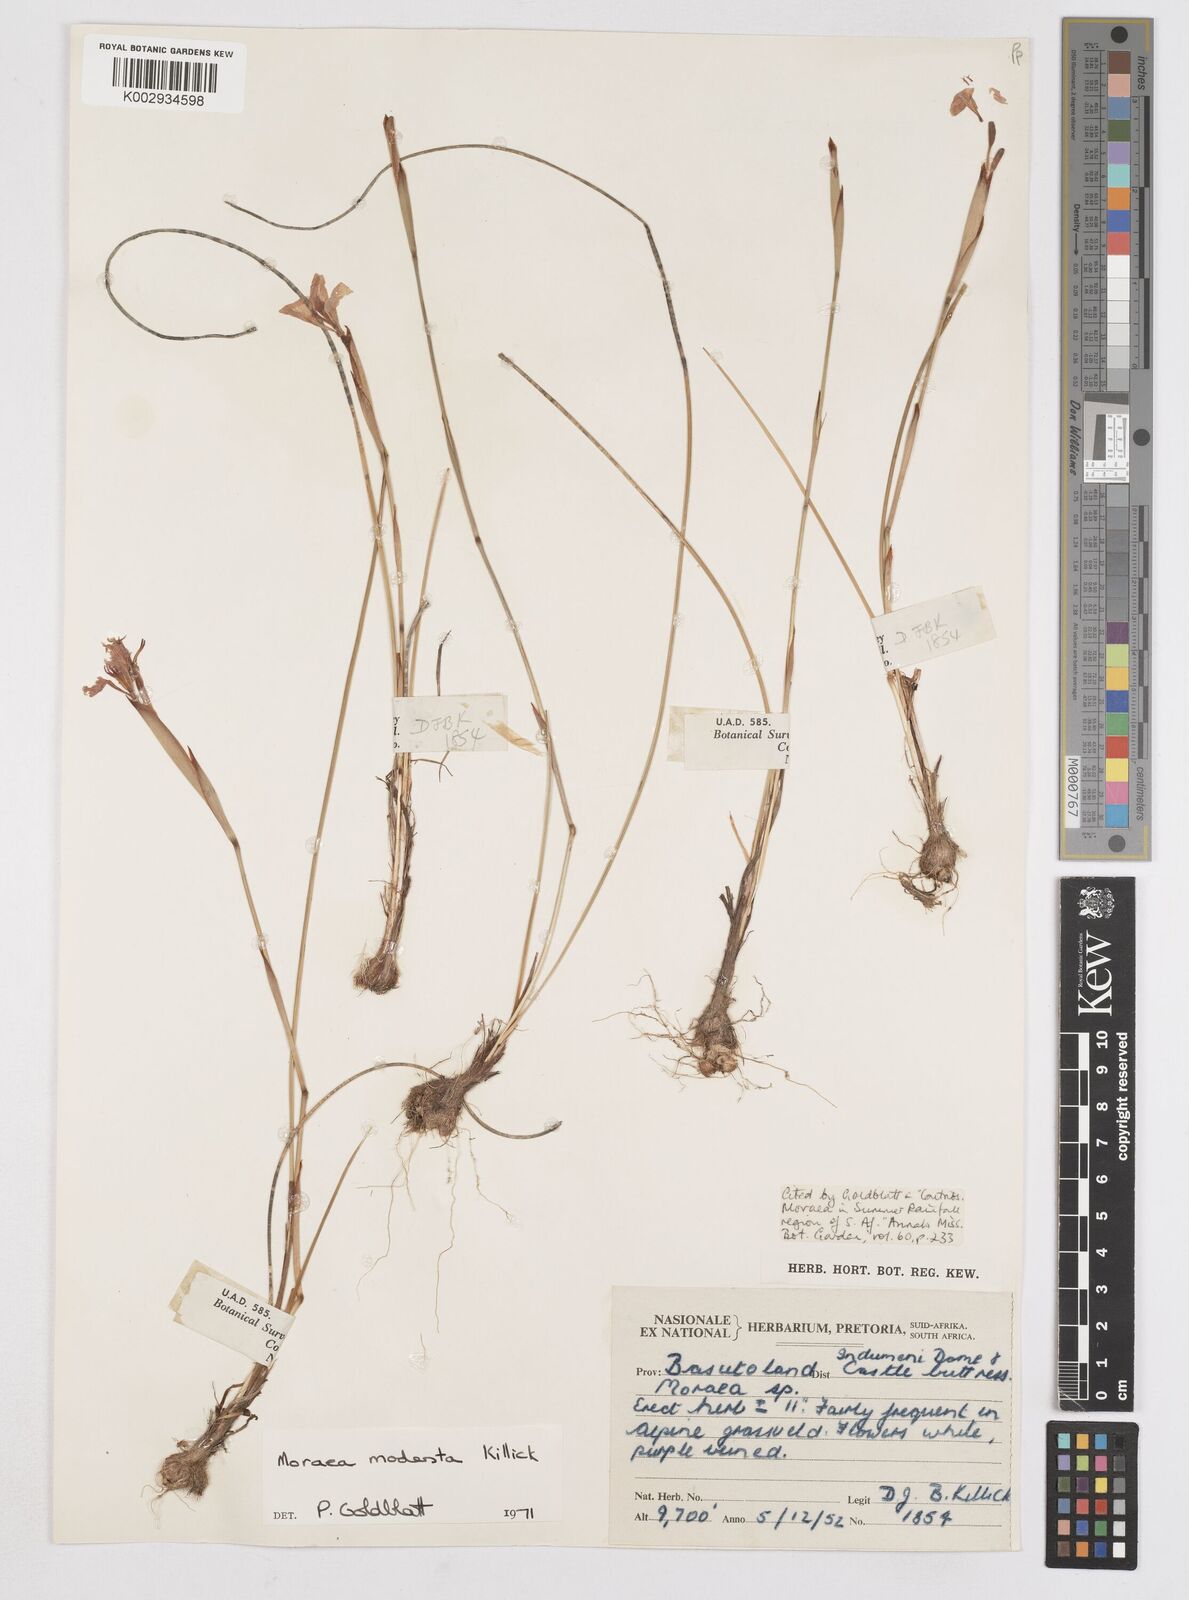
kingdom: Plantae
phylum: Tracheophyta
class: Liliopsida
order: Asparagales
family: Iridaceae
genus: Moraea
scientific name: Moraea modesta
